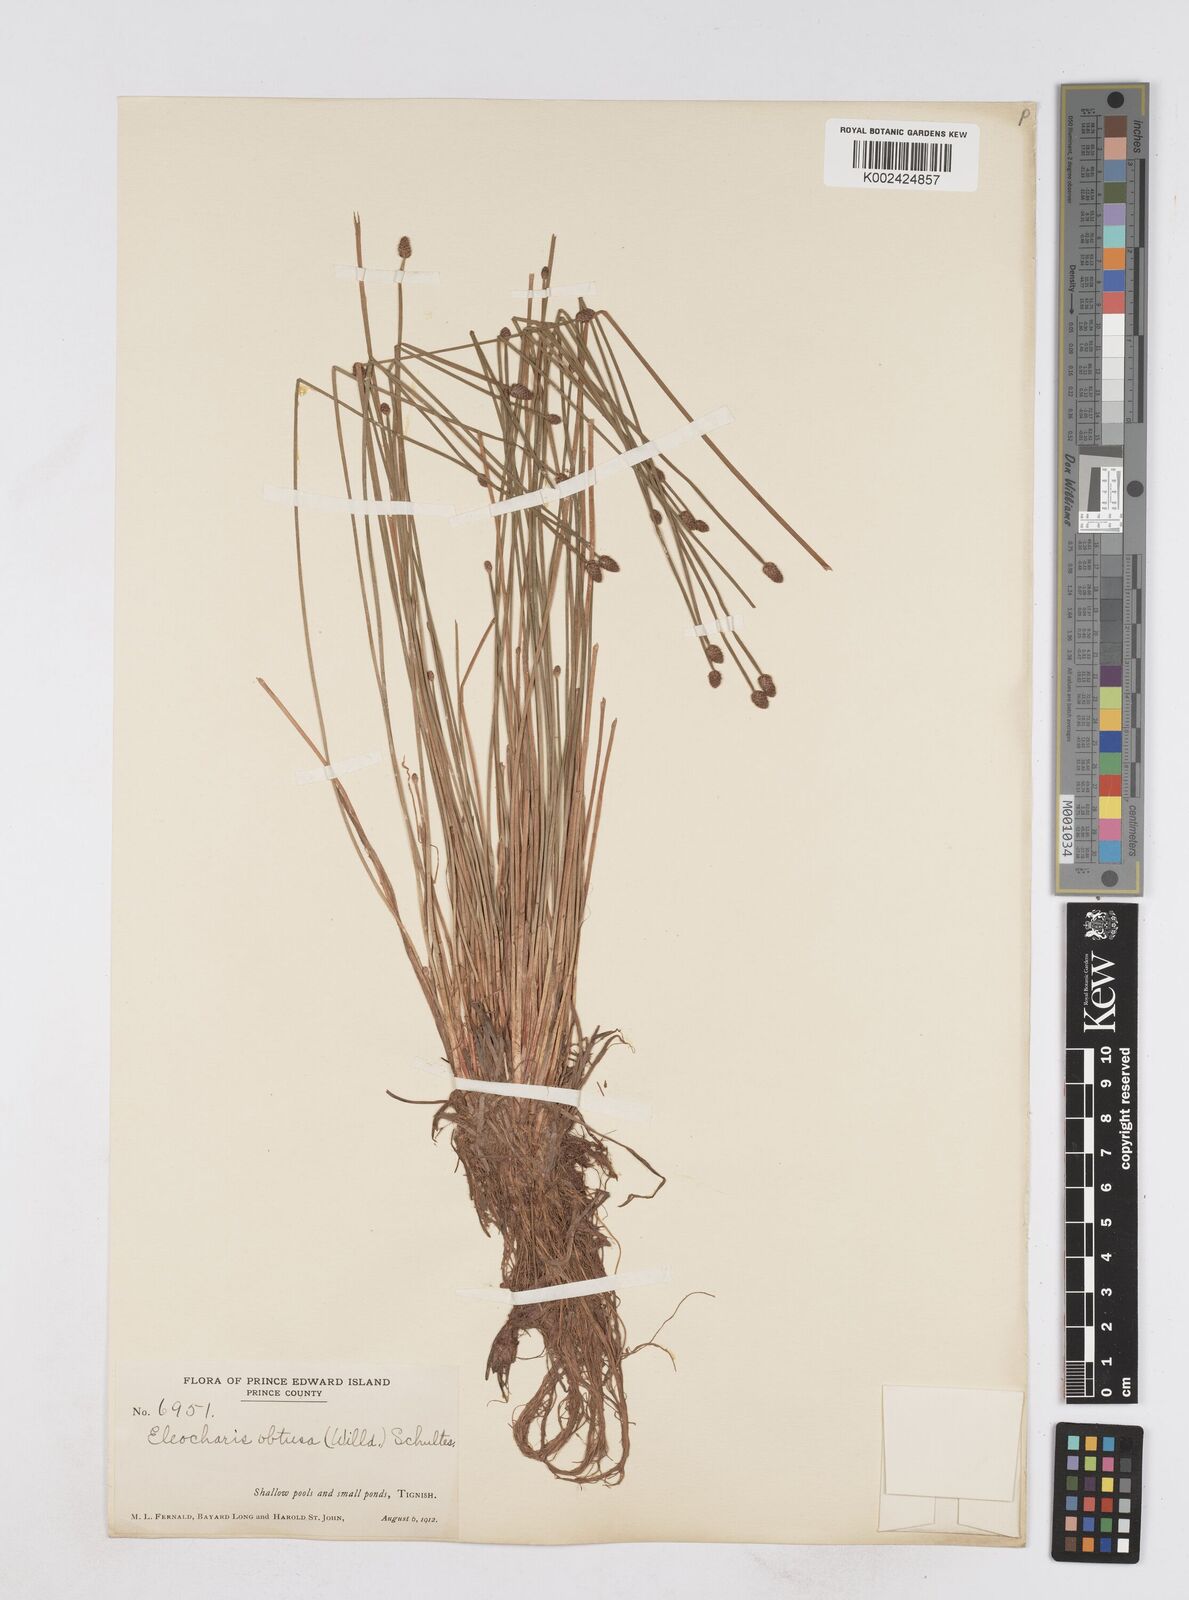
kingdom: Plantae
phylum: Tracheophyta
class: Liliopsida
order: Poales
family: Cyperaceae
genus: Eleocharis
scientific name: Eleocharis obtusa
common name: Blunt spikerush
